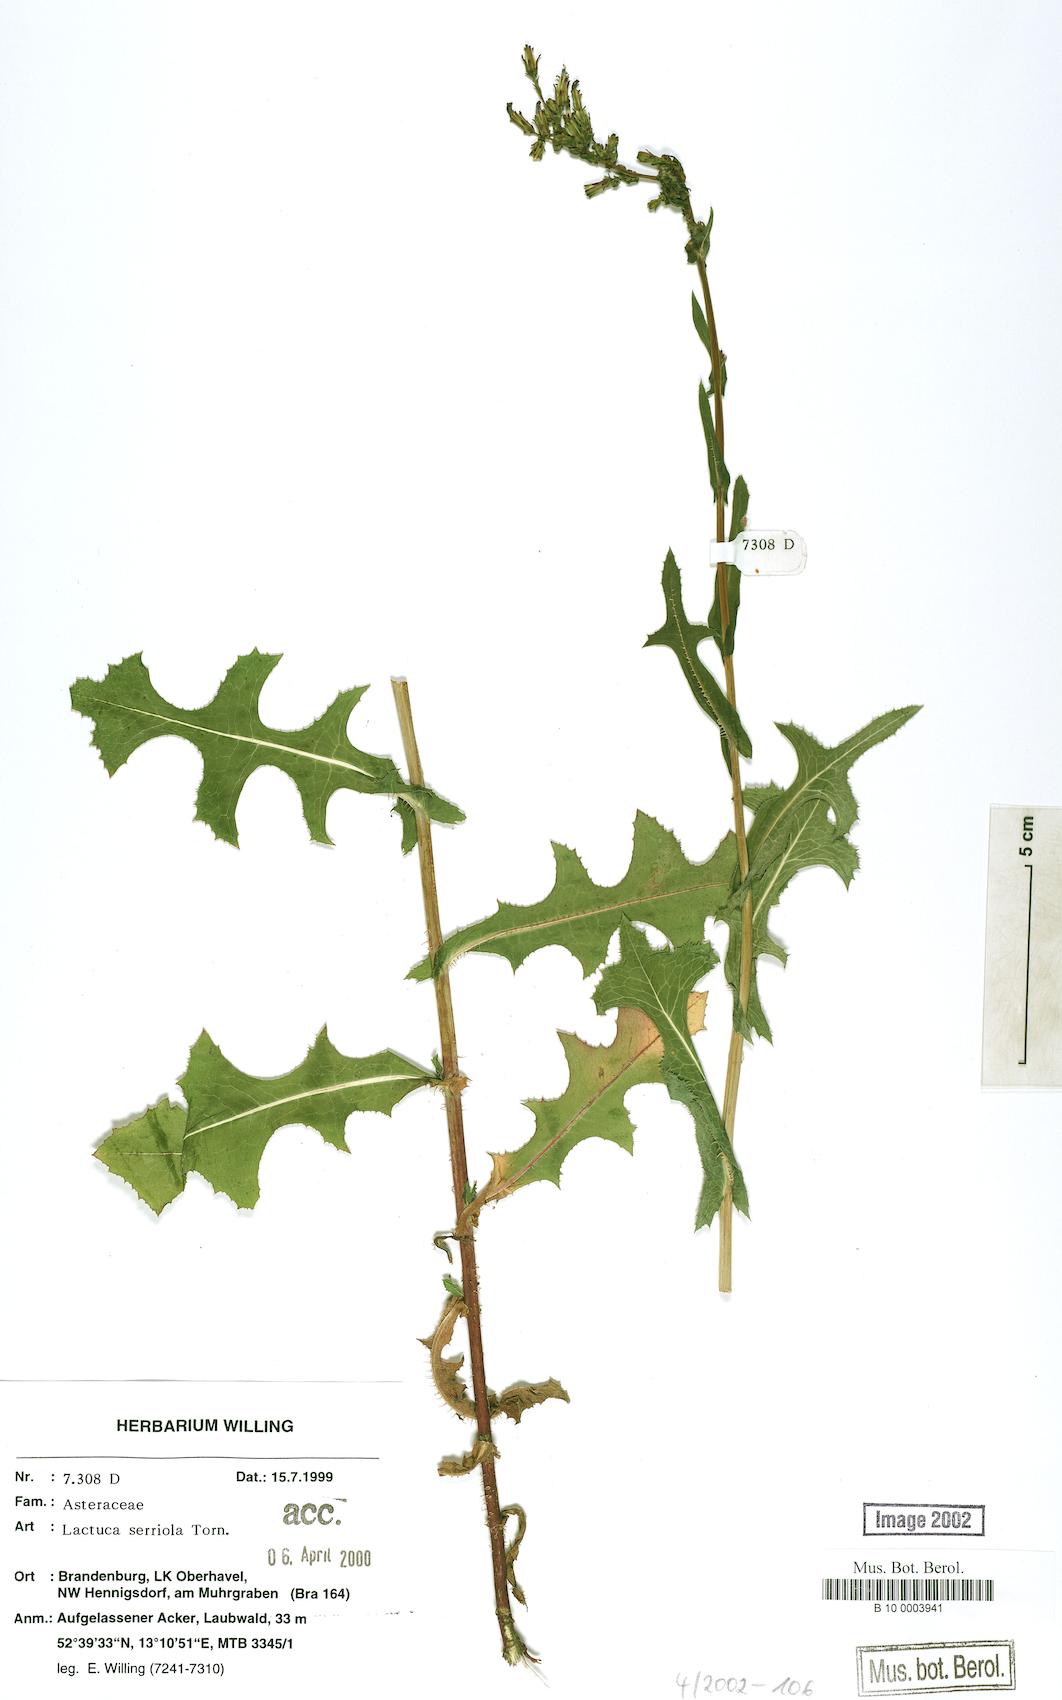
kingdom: Plantae
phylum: Tracheophyta
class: Magnoliopsida
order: Asterales
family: Asteraceae
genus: Lactuca
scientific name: Lactuca serriola
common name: Prickly lettuce
